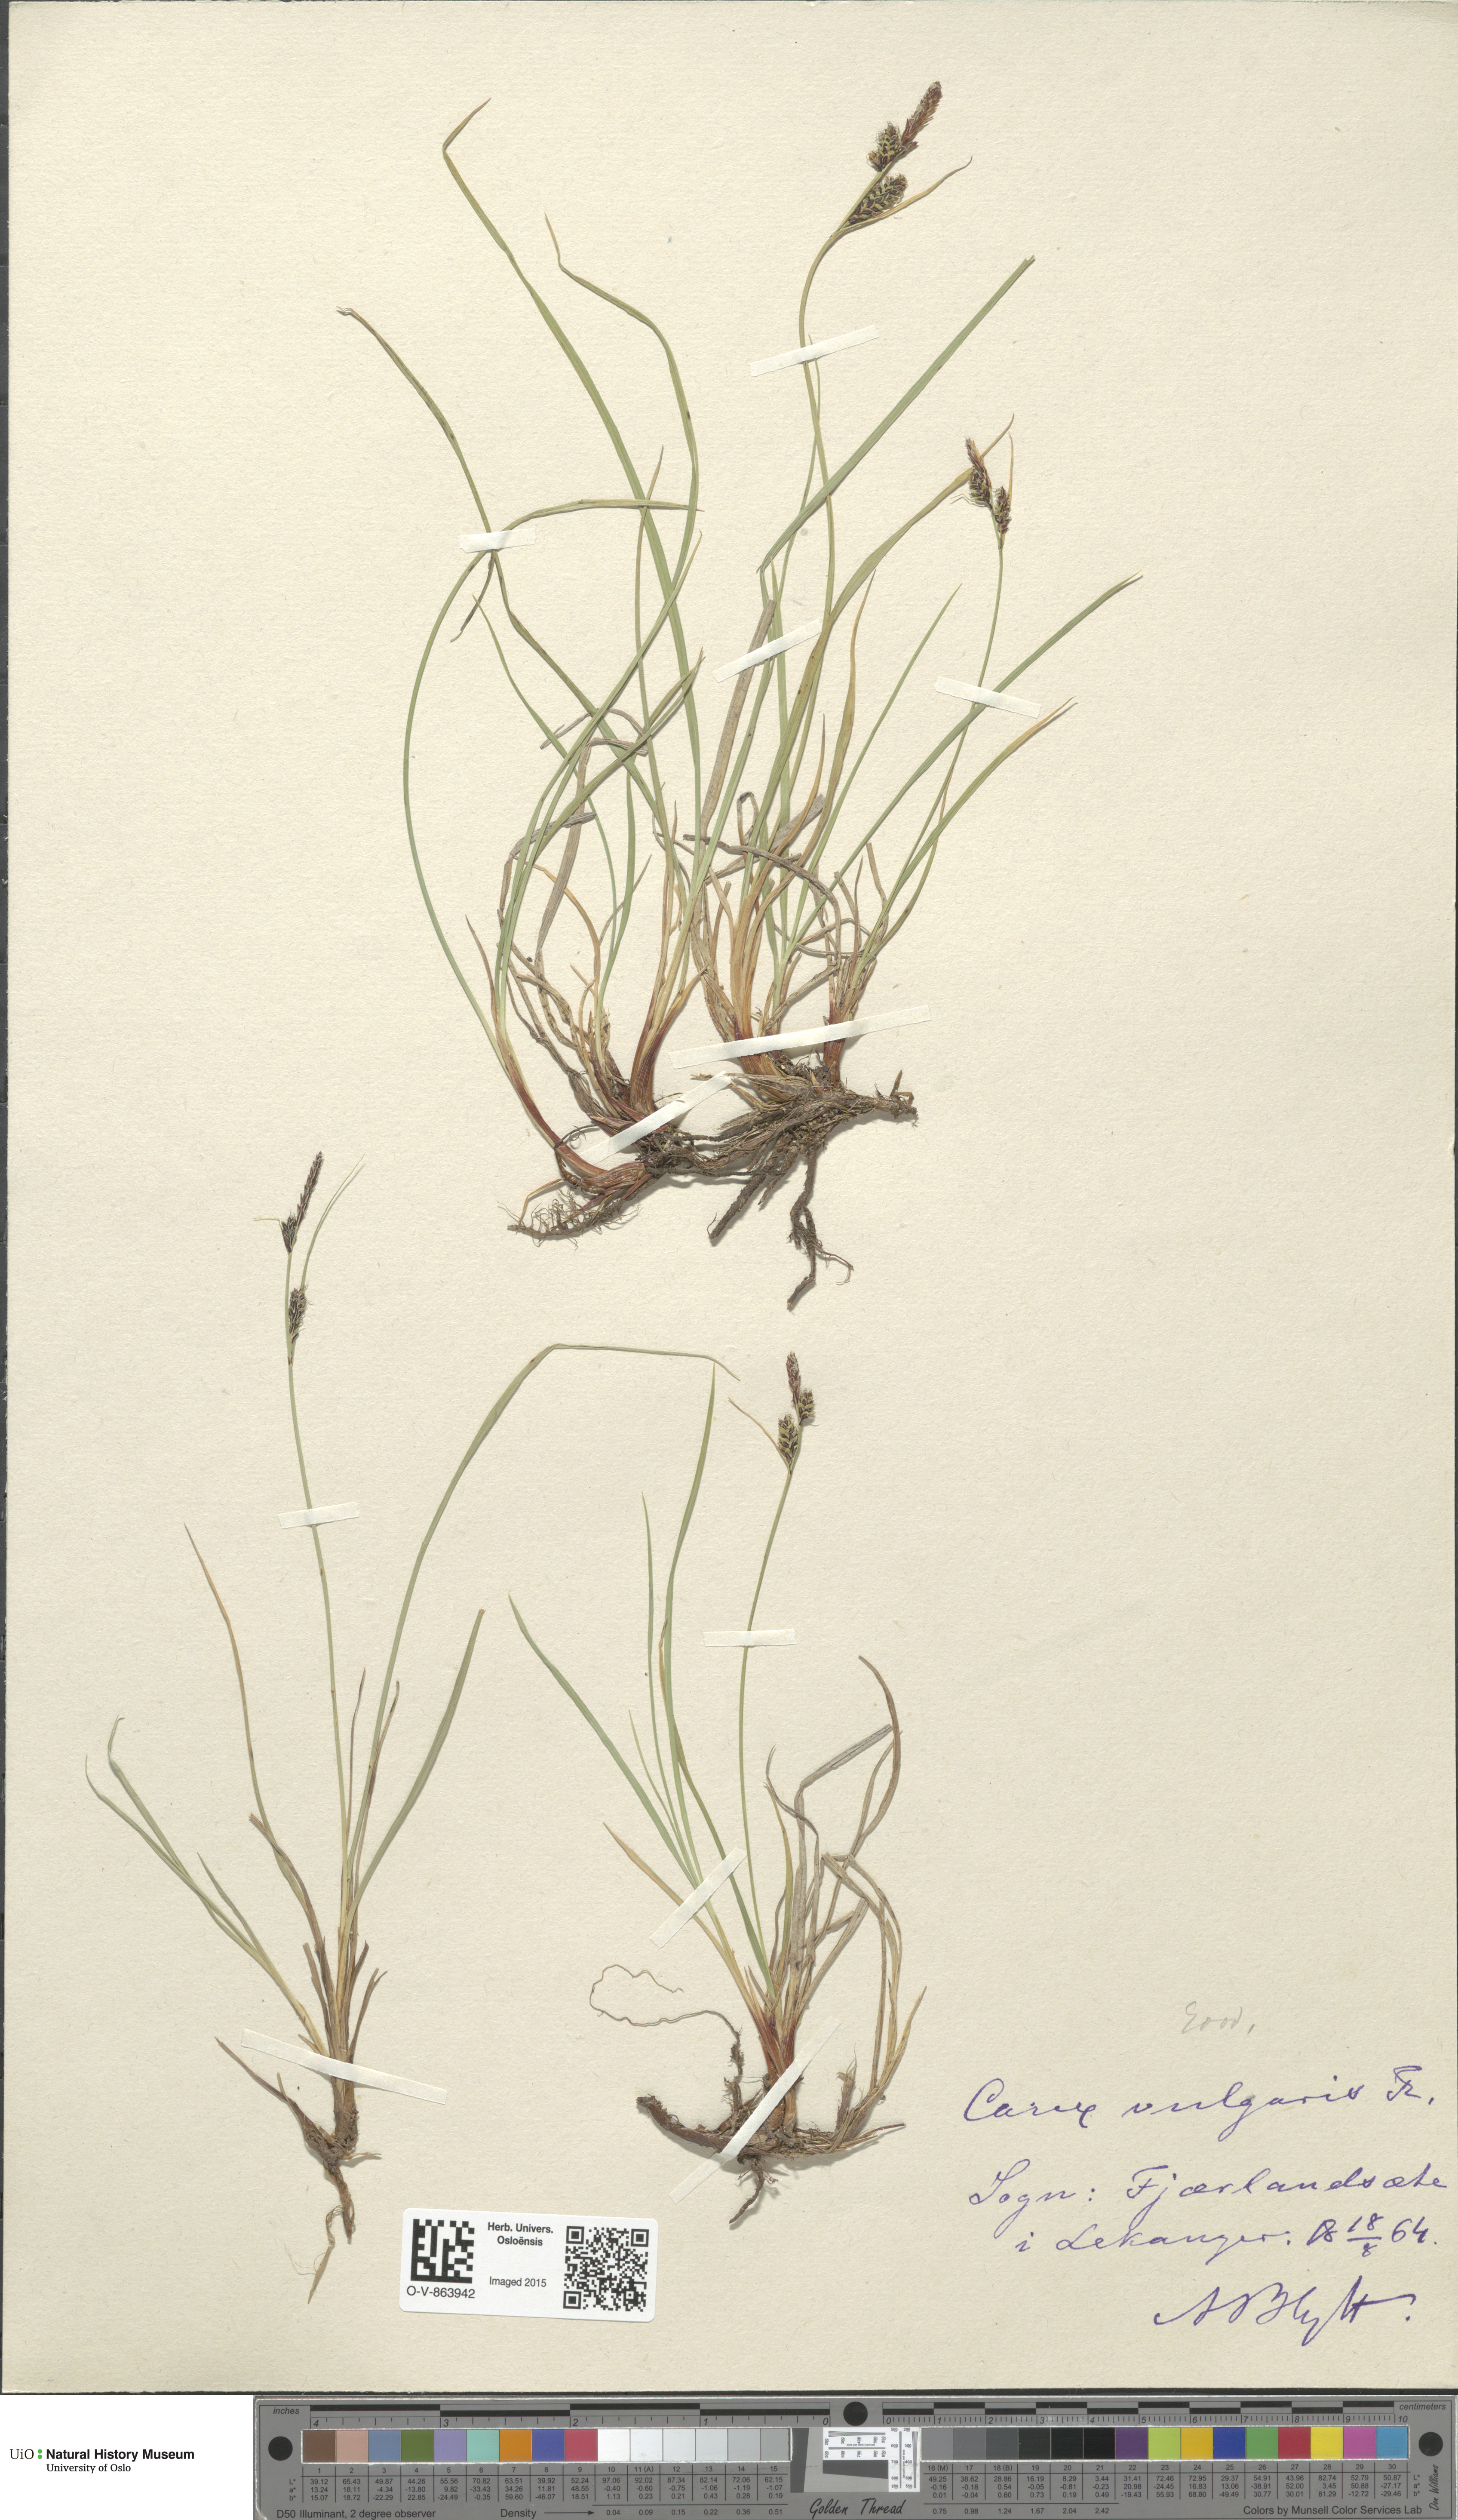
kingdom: Plantae
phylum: Tracheophyta
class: Liliopsida
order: Poales
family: Cyperaceae
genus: Carex
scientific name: Carex nigra
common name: Common sedge
